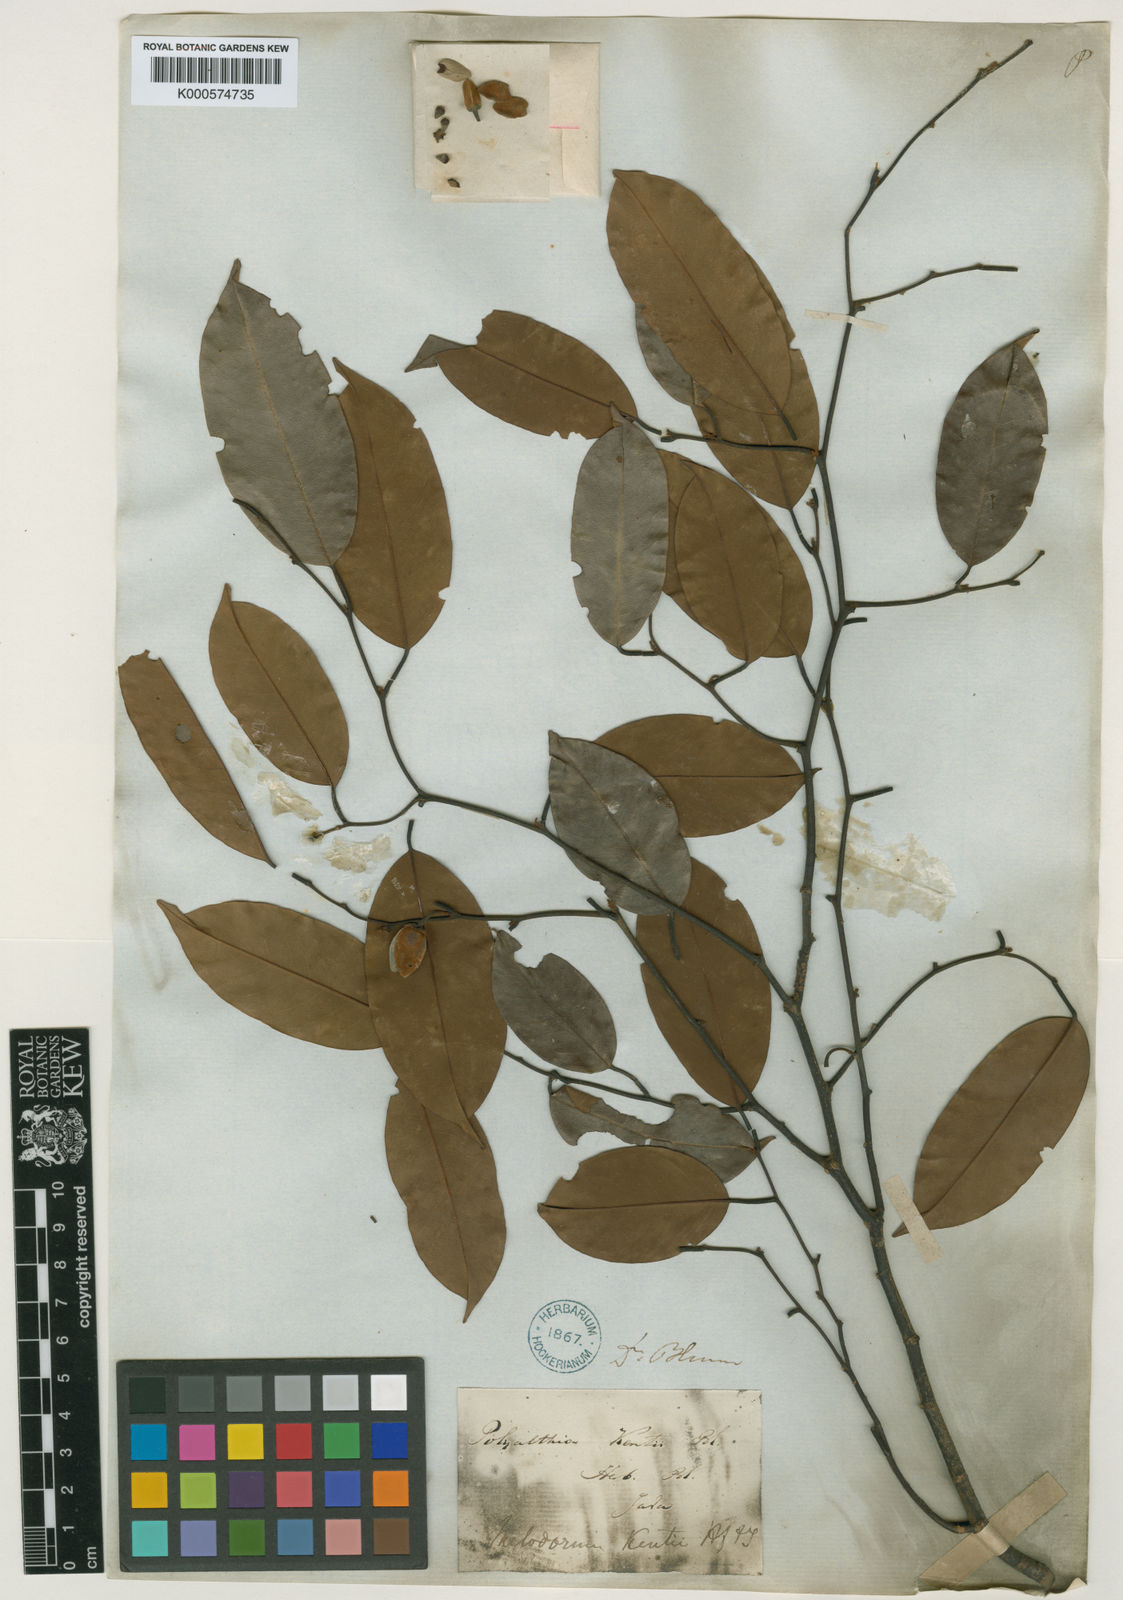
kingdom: Plantae
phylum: Tracheophyta
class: Magnoliopsida
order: Magnoliales
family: Annonaceae
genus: Mitrella
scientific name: Mitrella kentii
